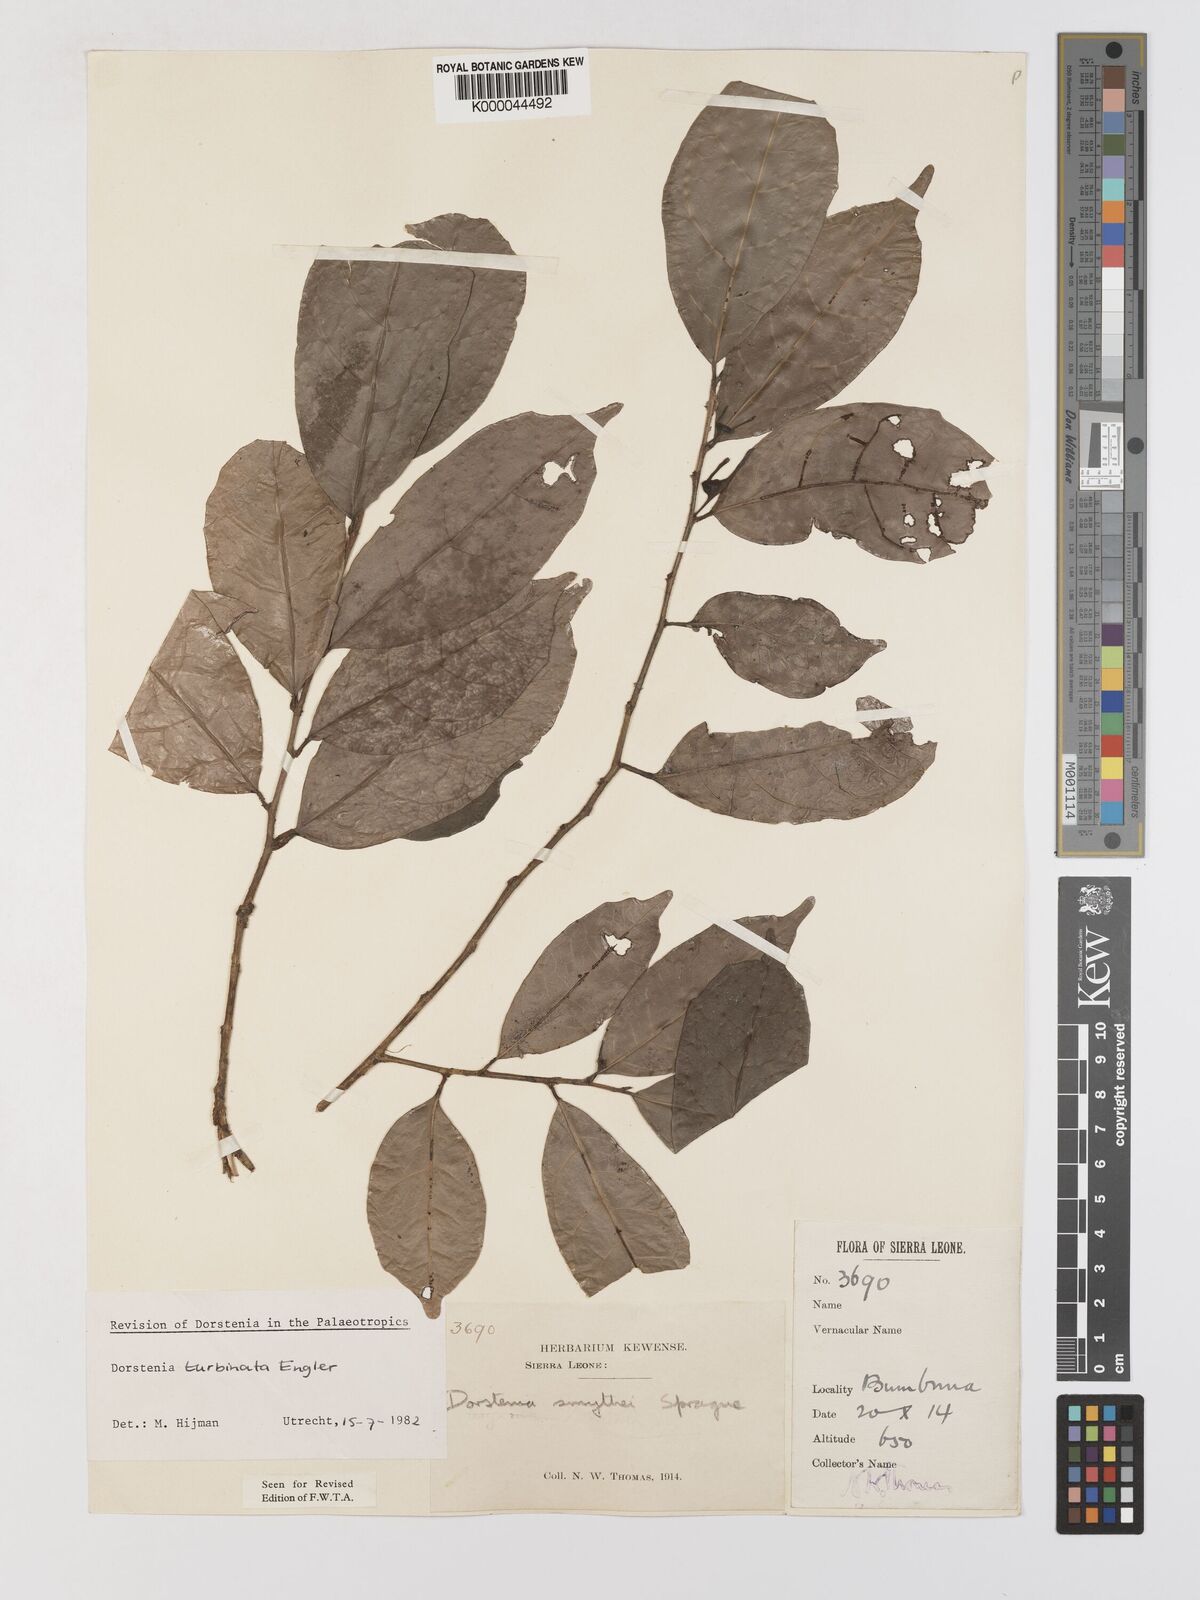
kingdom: Plantae
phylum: Tracheophyta
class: Magnoliopsida
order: Rosales
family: Moraceae
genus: Hijmania
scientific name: Hijmania turbinata
